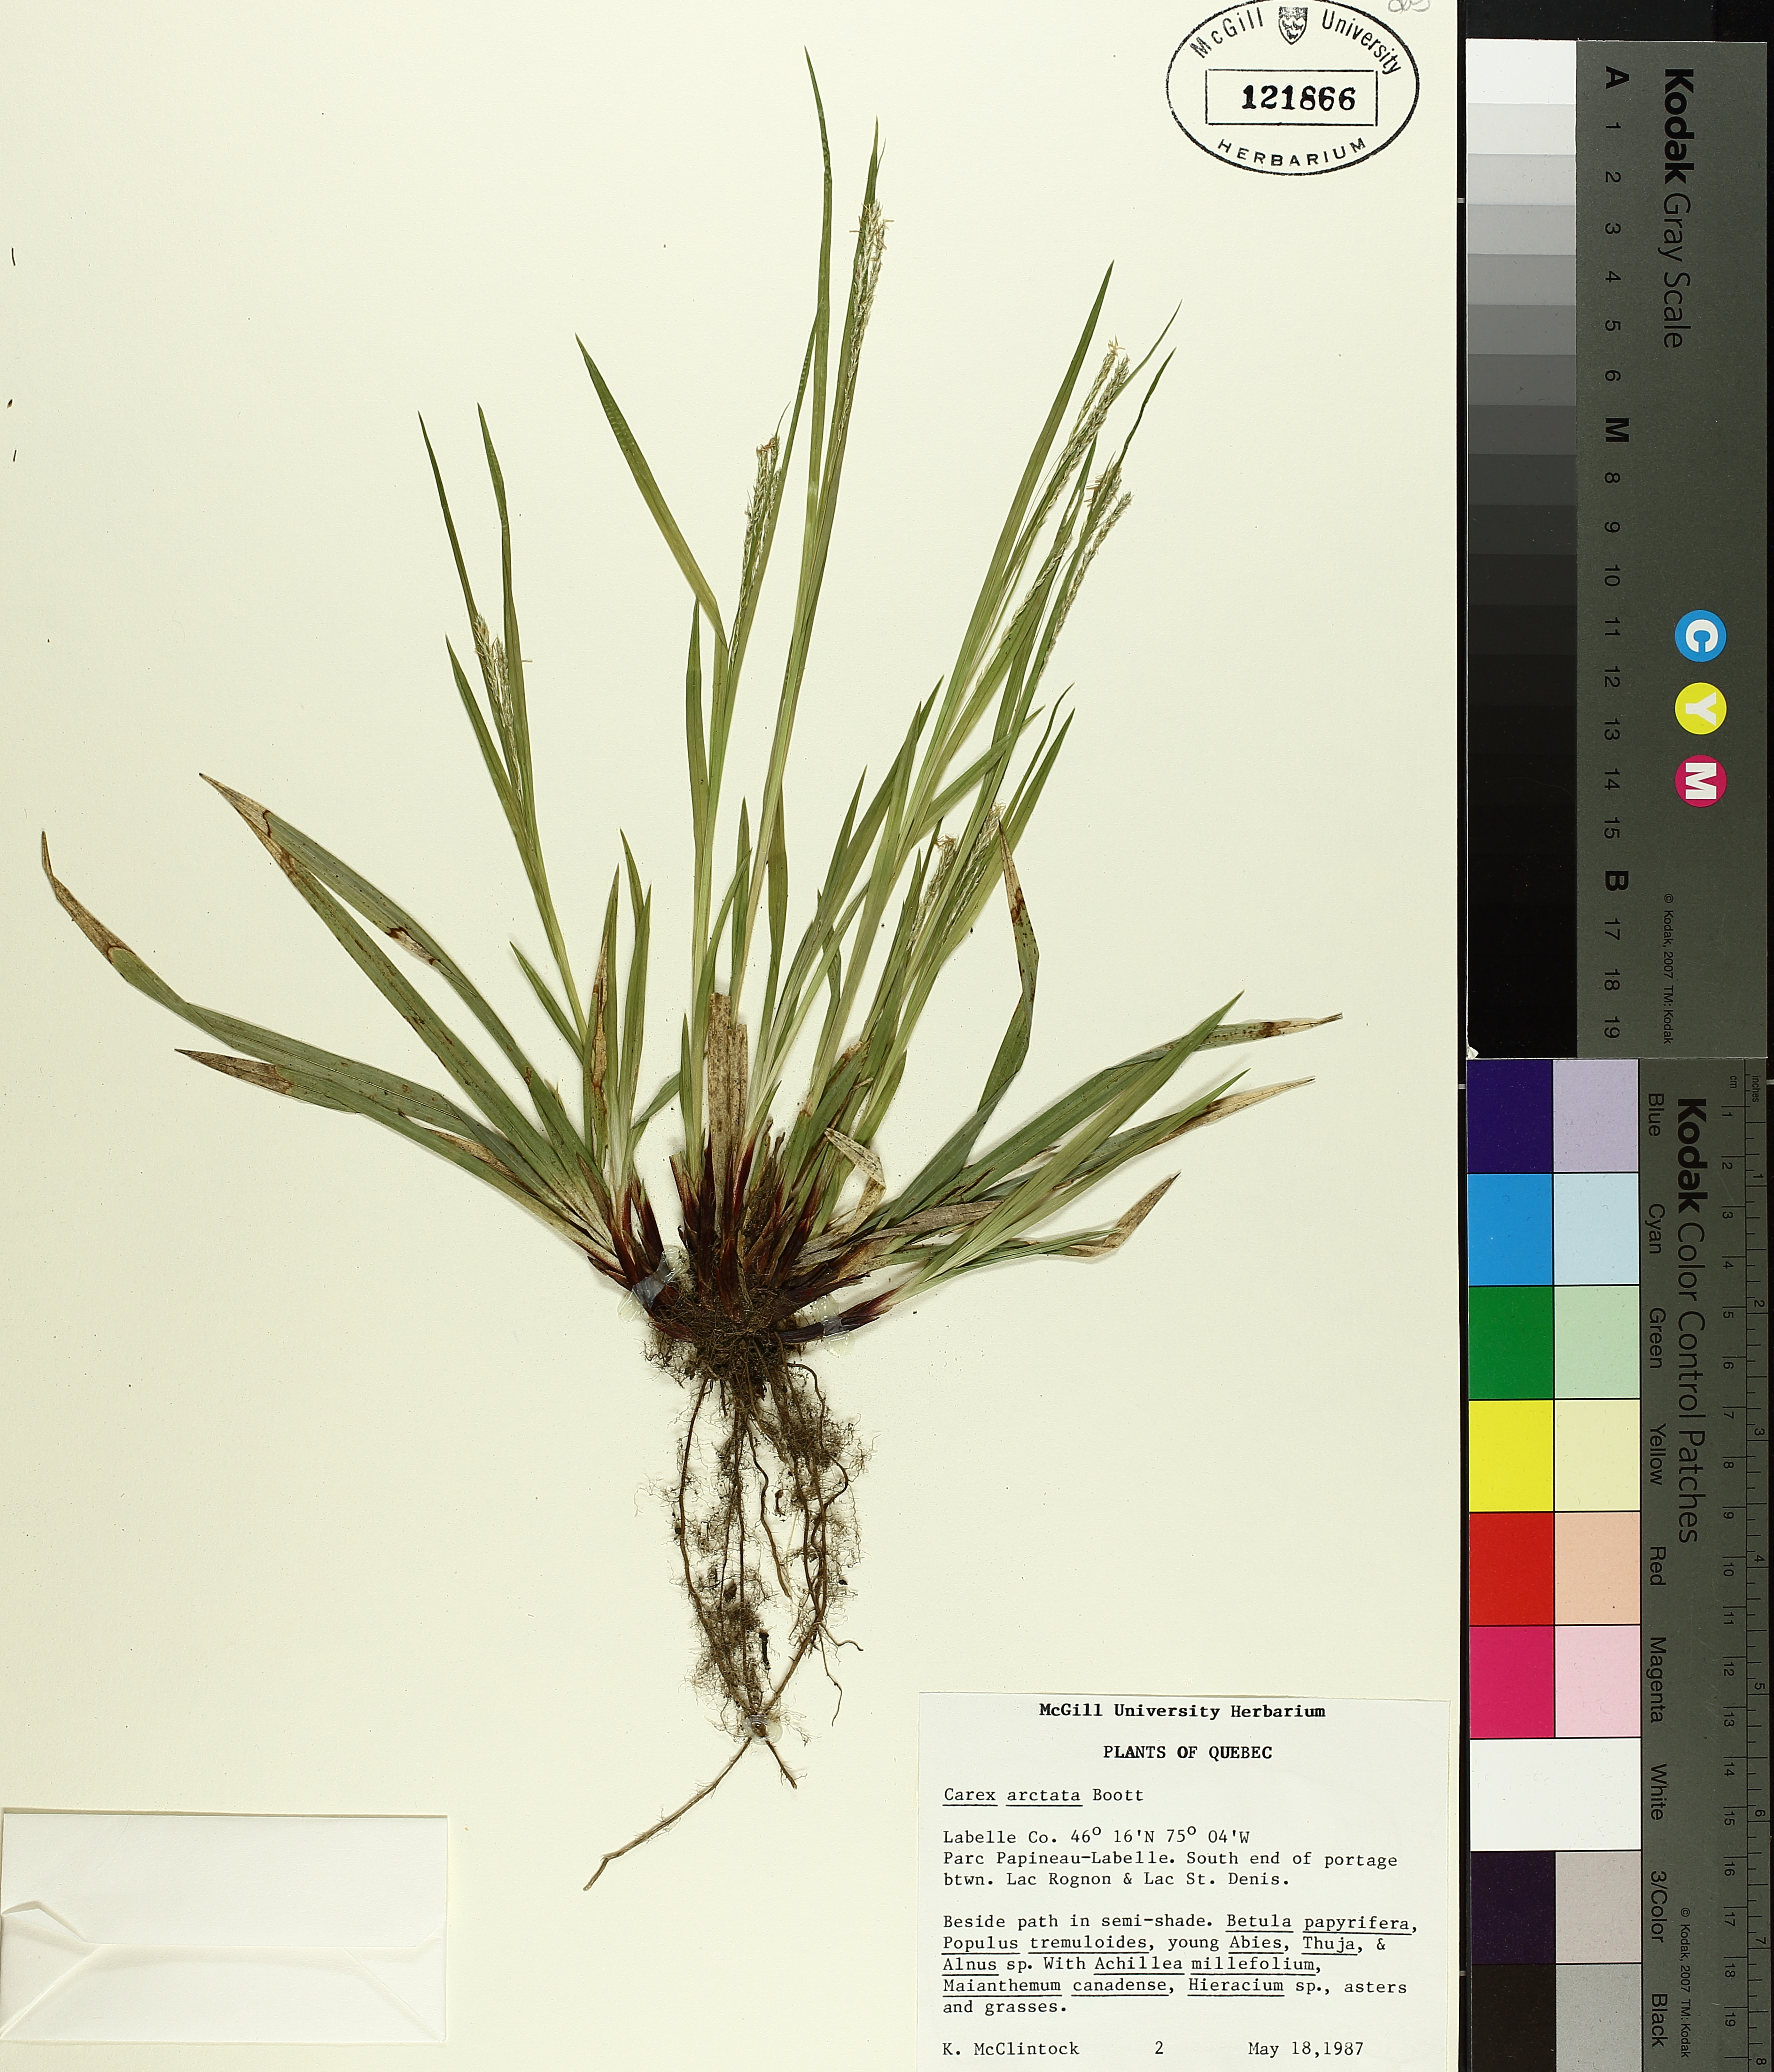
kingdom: Plantae
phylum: Tracheophyta
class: Liliopsida
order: Poales
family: Cyperaceae
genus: Carex
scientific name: Carex arctata
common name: Black sedge
